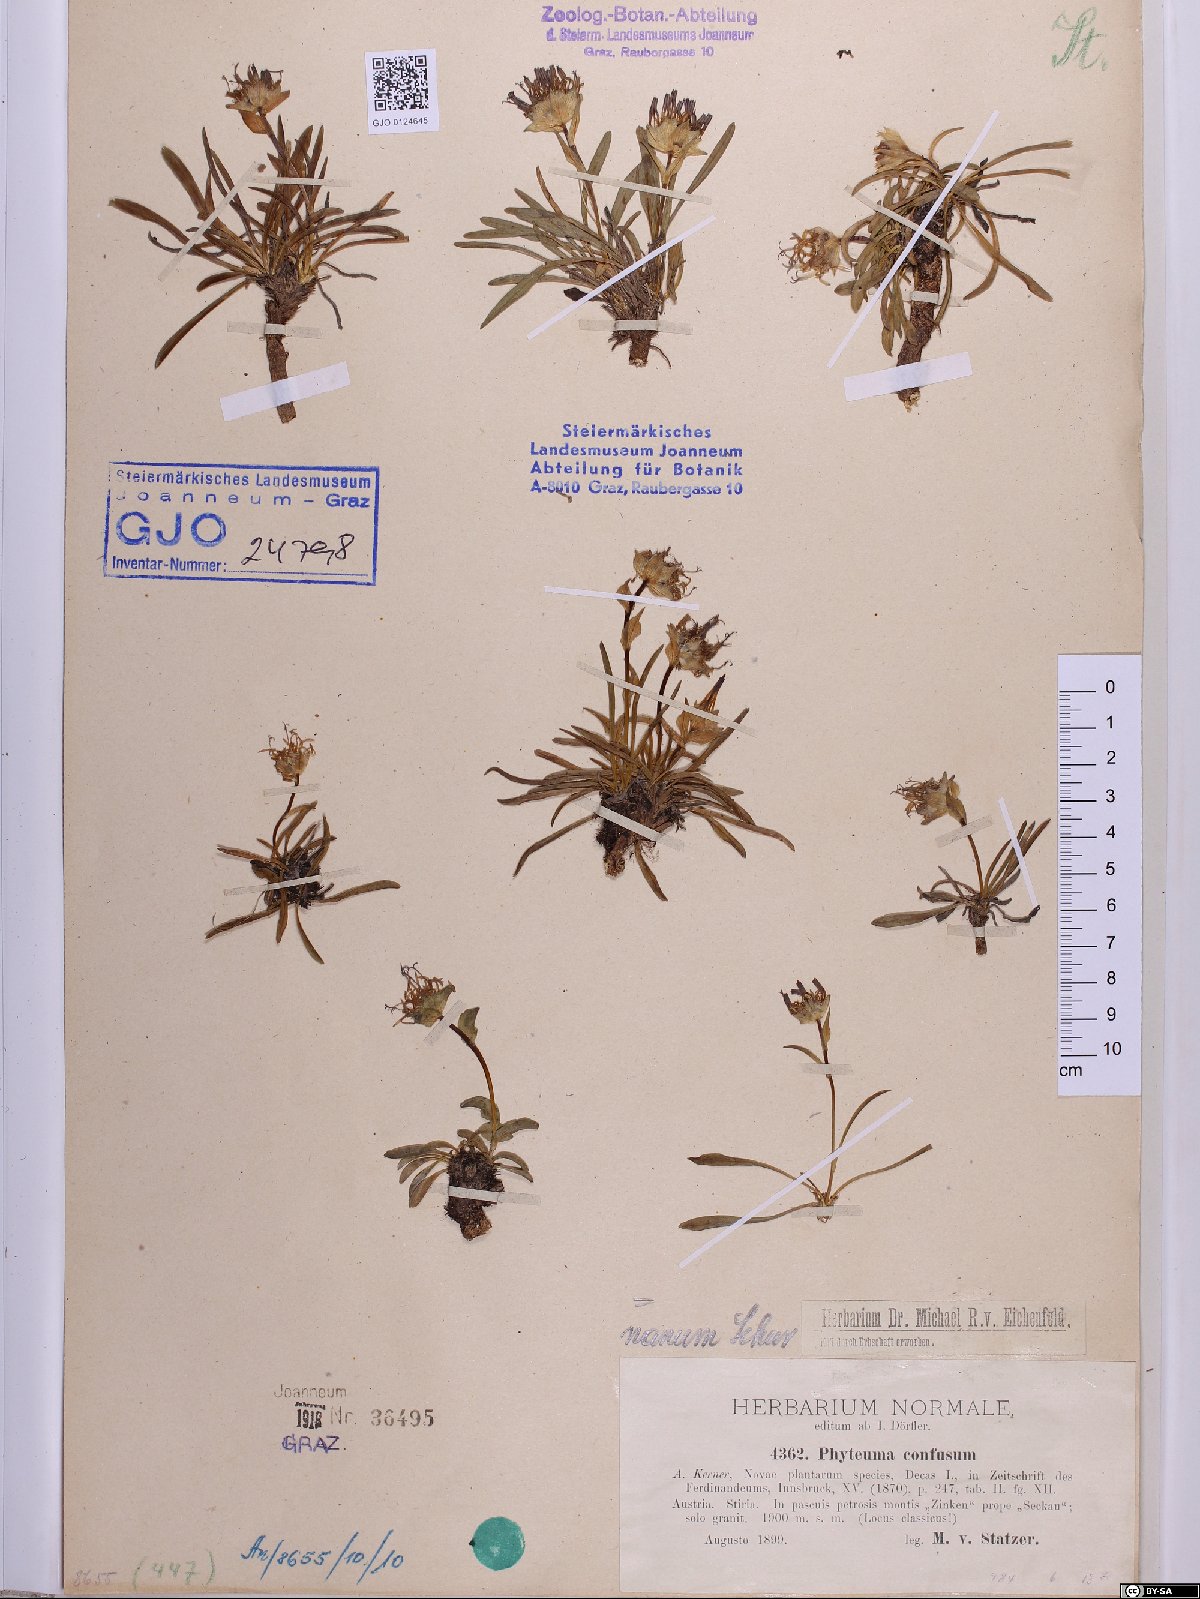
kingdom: Plantae
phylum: Tracheophyta
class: Magnoliopsida
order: Asterales
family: Campanulaceae
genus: Phyteuma
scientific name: Phyteuma confusum
